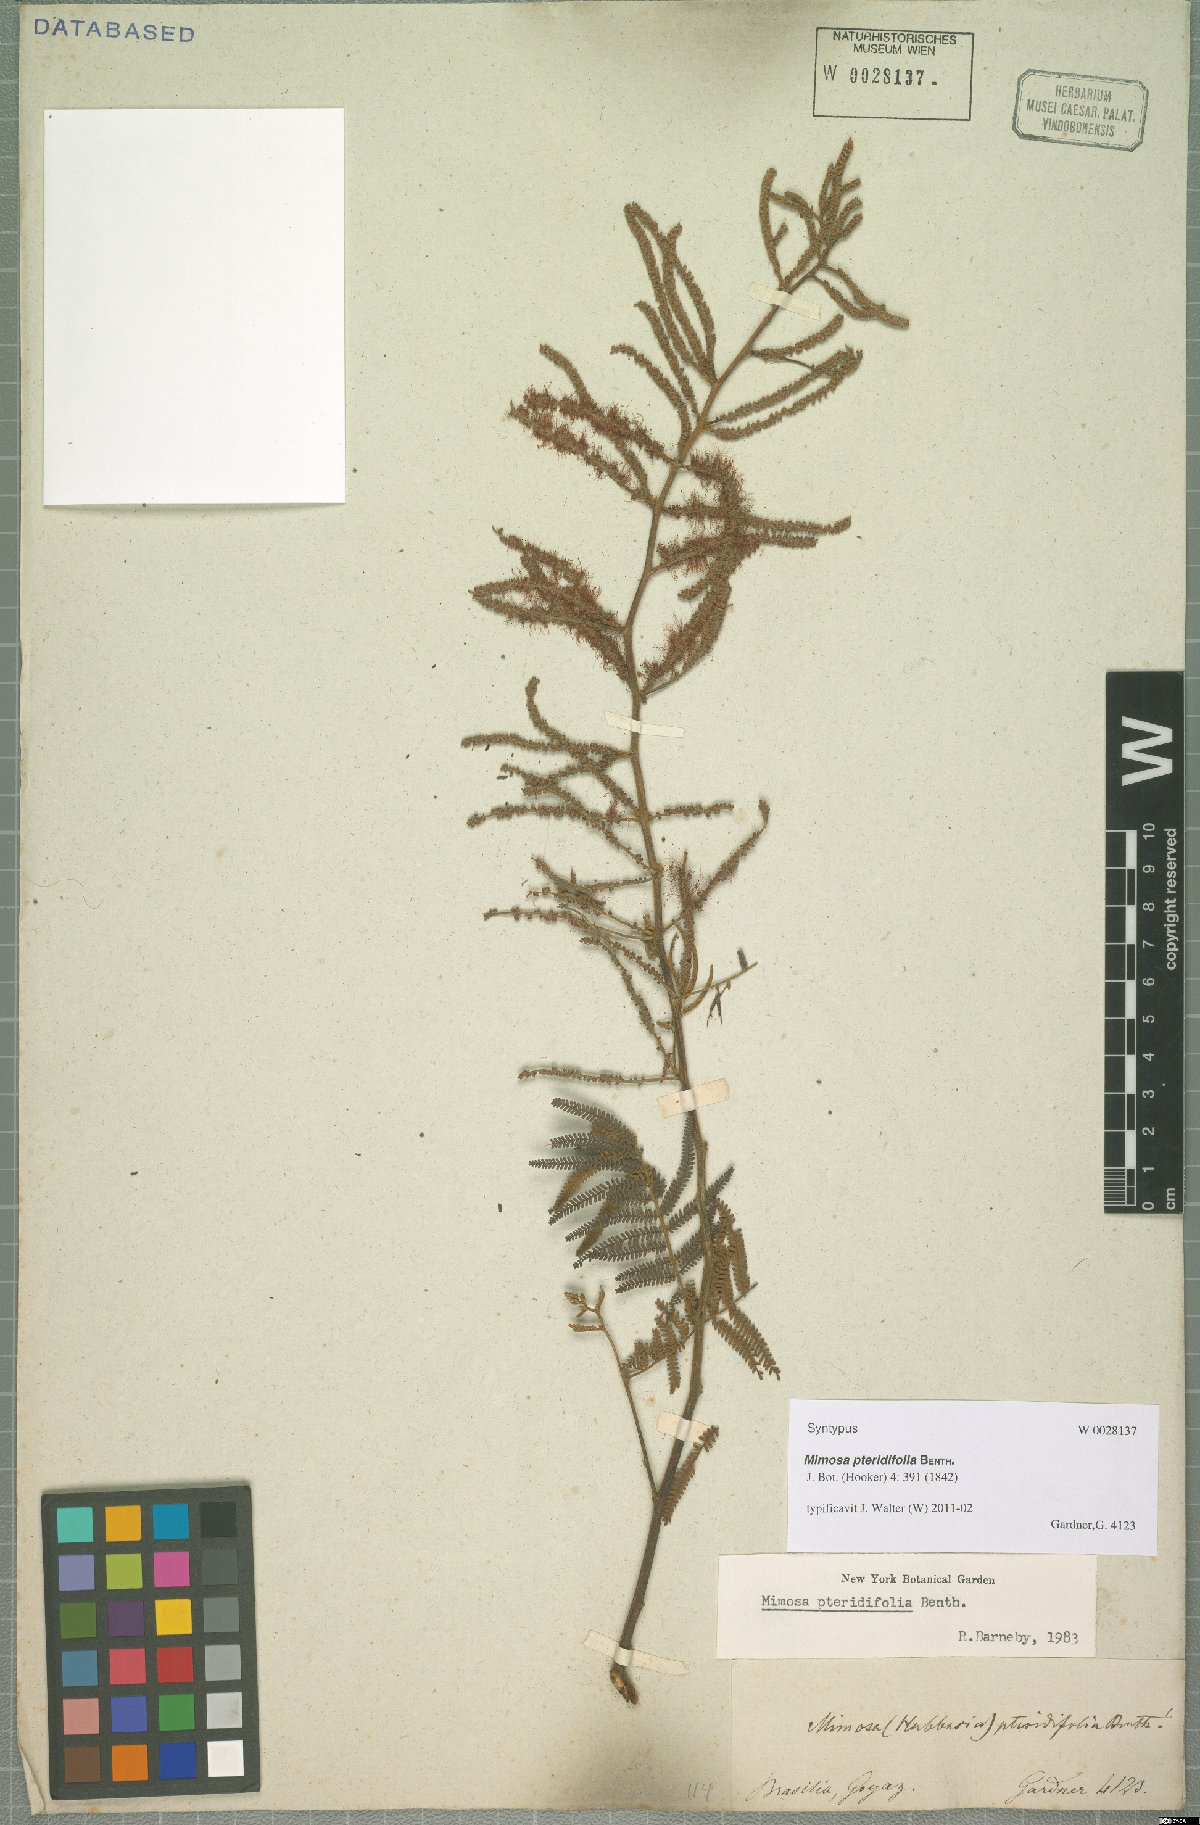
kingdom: Plantae
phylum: Tracheophyta
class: Magnoliopsida
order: Fabales
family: Fabaceae
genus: Mimosa
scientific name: Mimosa pteridifolia
